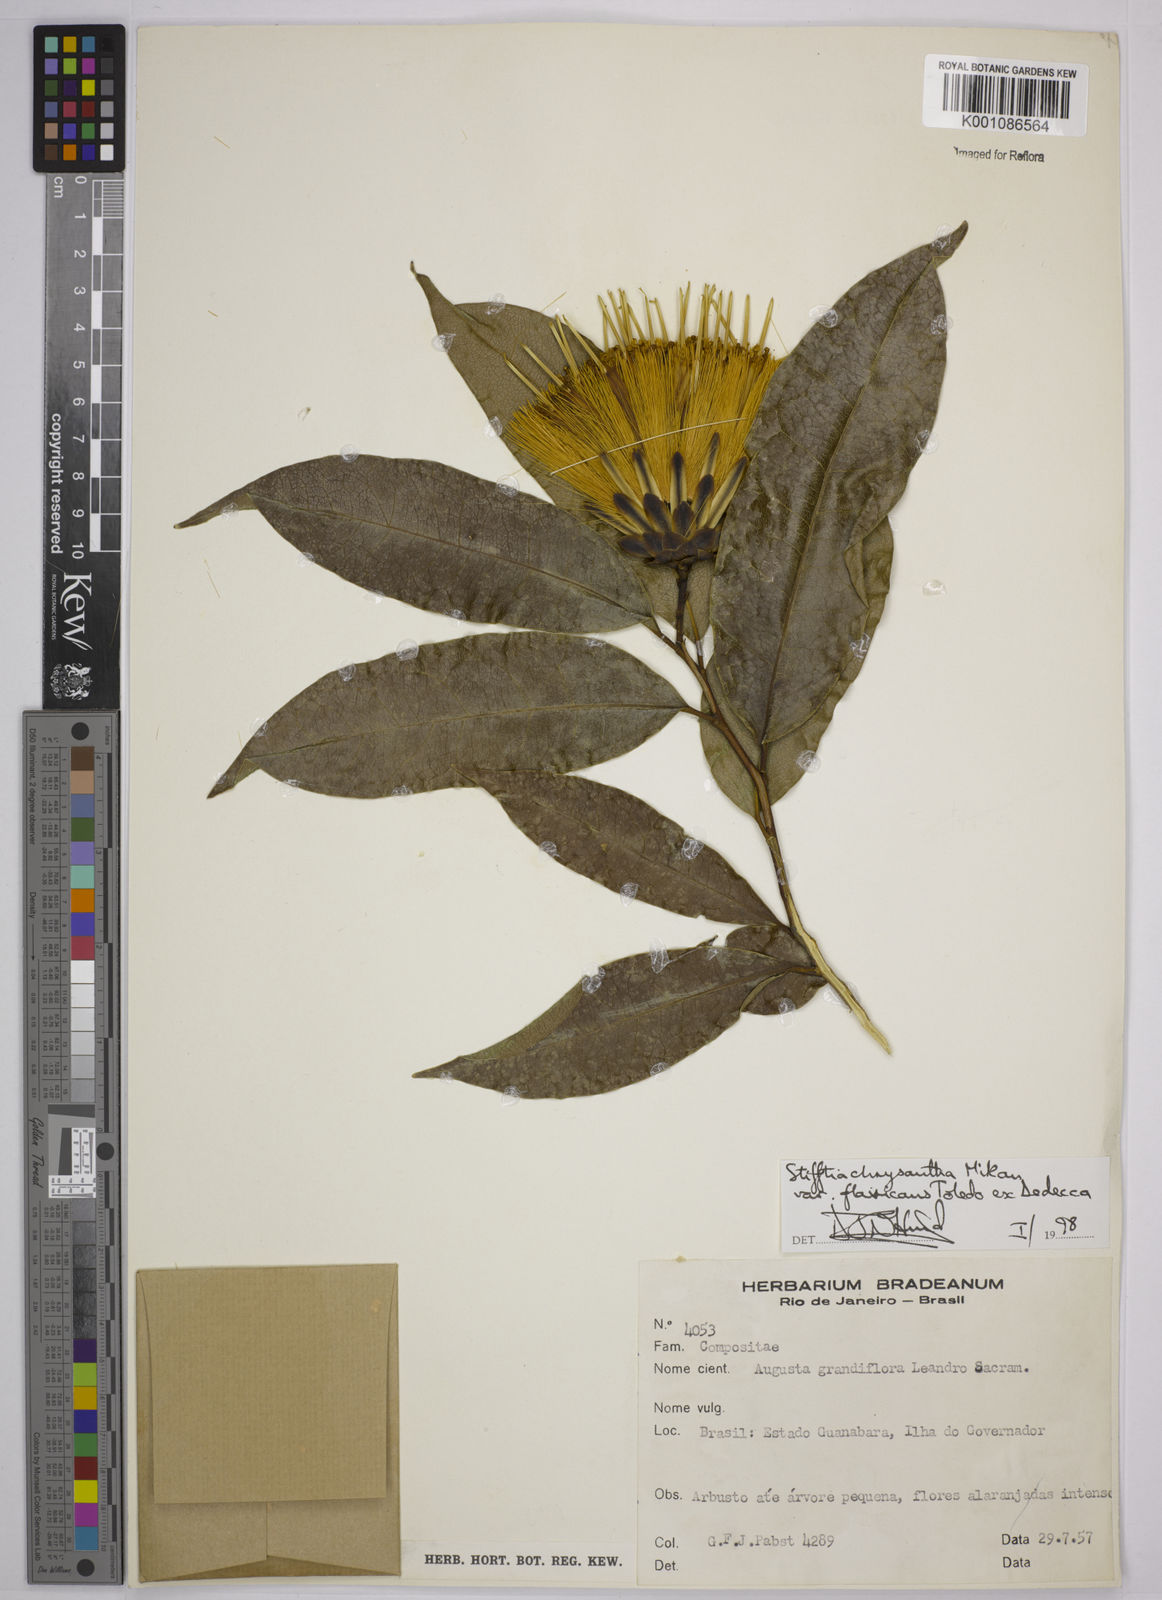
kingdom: Plantae
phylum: Tracheophyta
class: Magnoliopsida
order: Asterales
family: Asteraceae
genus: Stifftia
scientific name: Stifftia chrysantha
